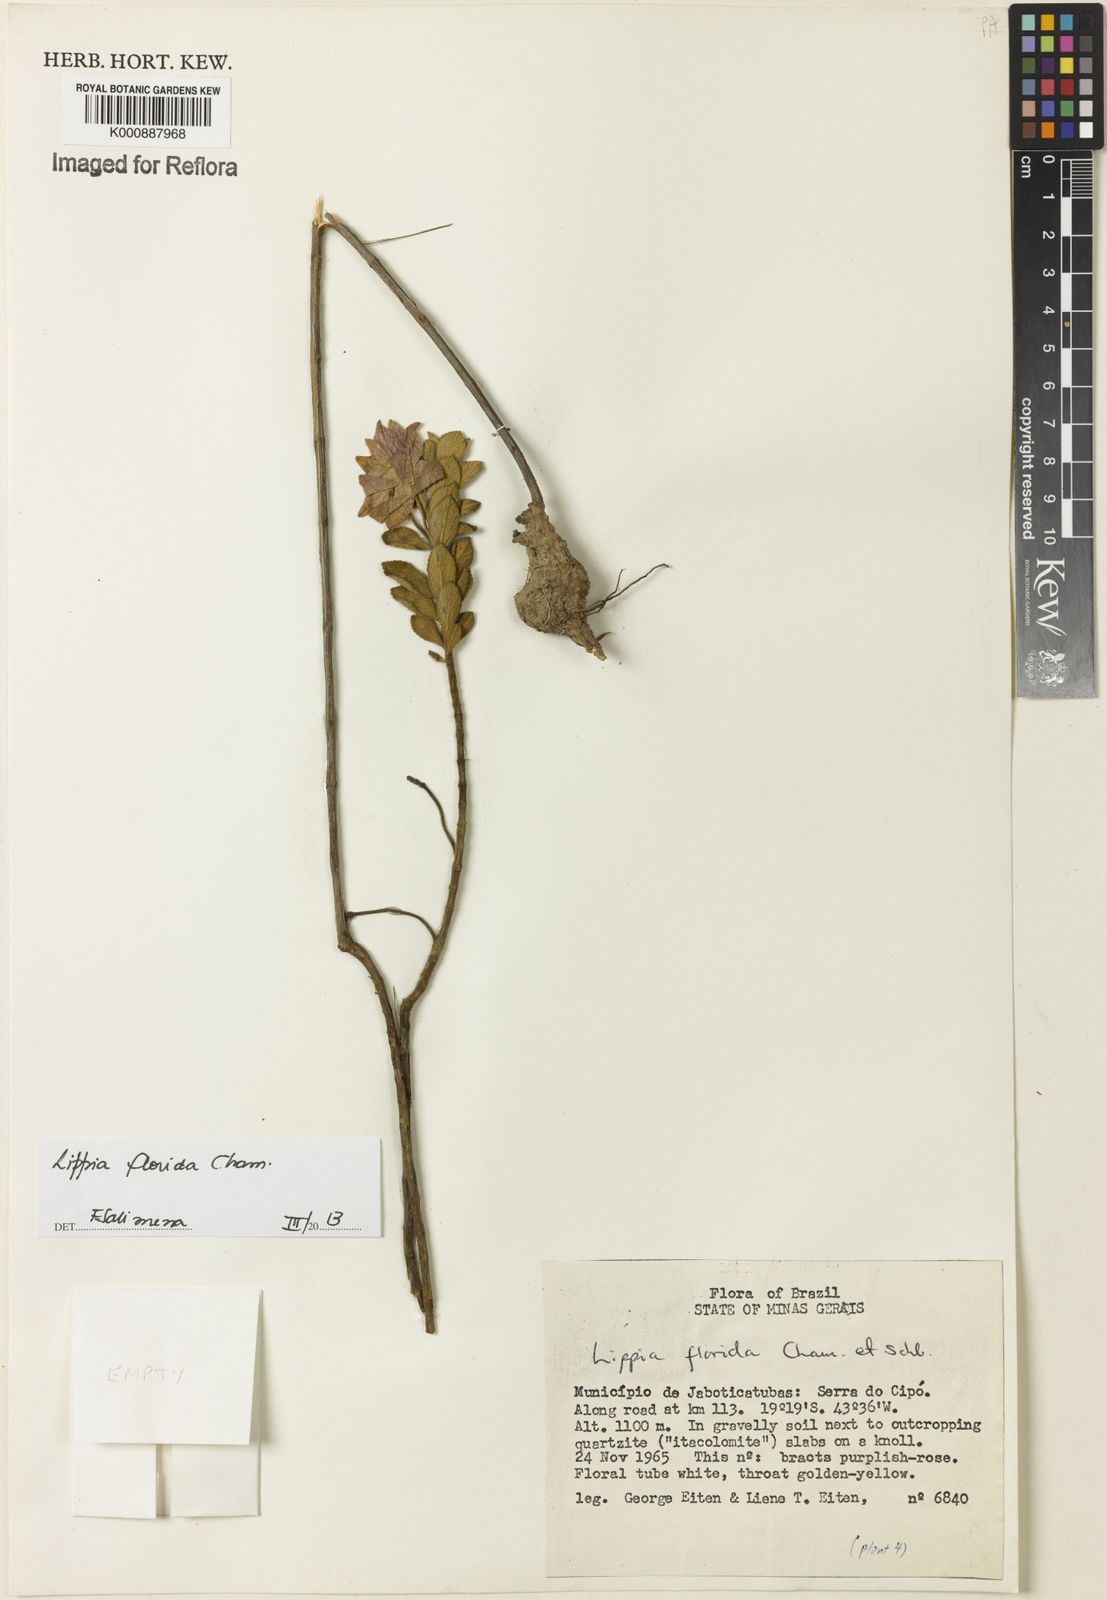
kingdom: Plantae
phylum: Tracheophyta
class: Magnoliopsida
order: Lamiales
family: Verbenaceae
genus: Lippia
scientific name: Lippia florida
